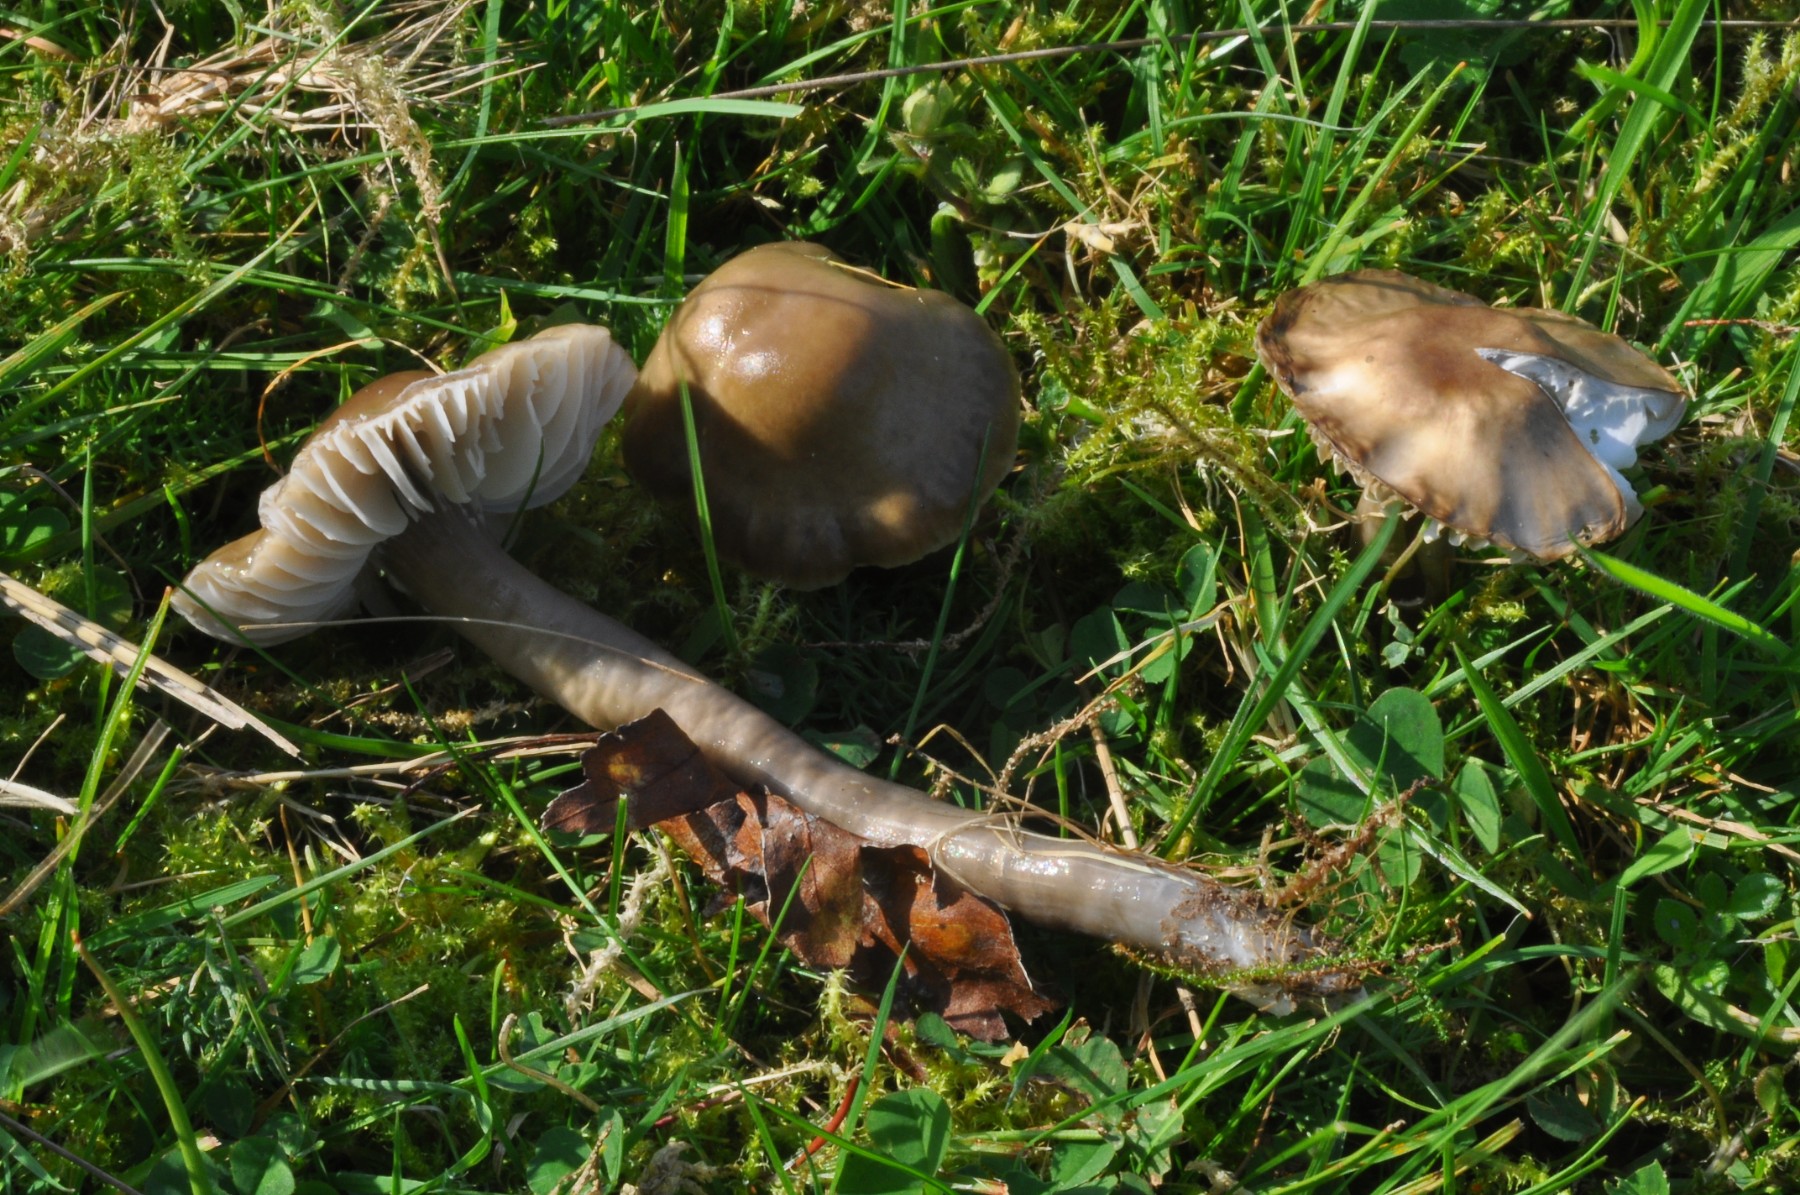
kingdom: Fungi
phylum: Basidiomycota
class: Agaricomycetes
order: Agaricales
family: Hygrophoraceae
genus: Gliophorus
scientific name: Gliophorus irrigatus
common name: slimet vokshat
